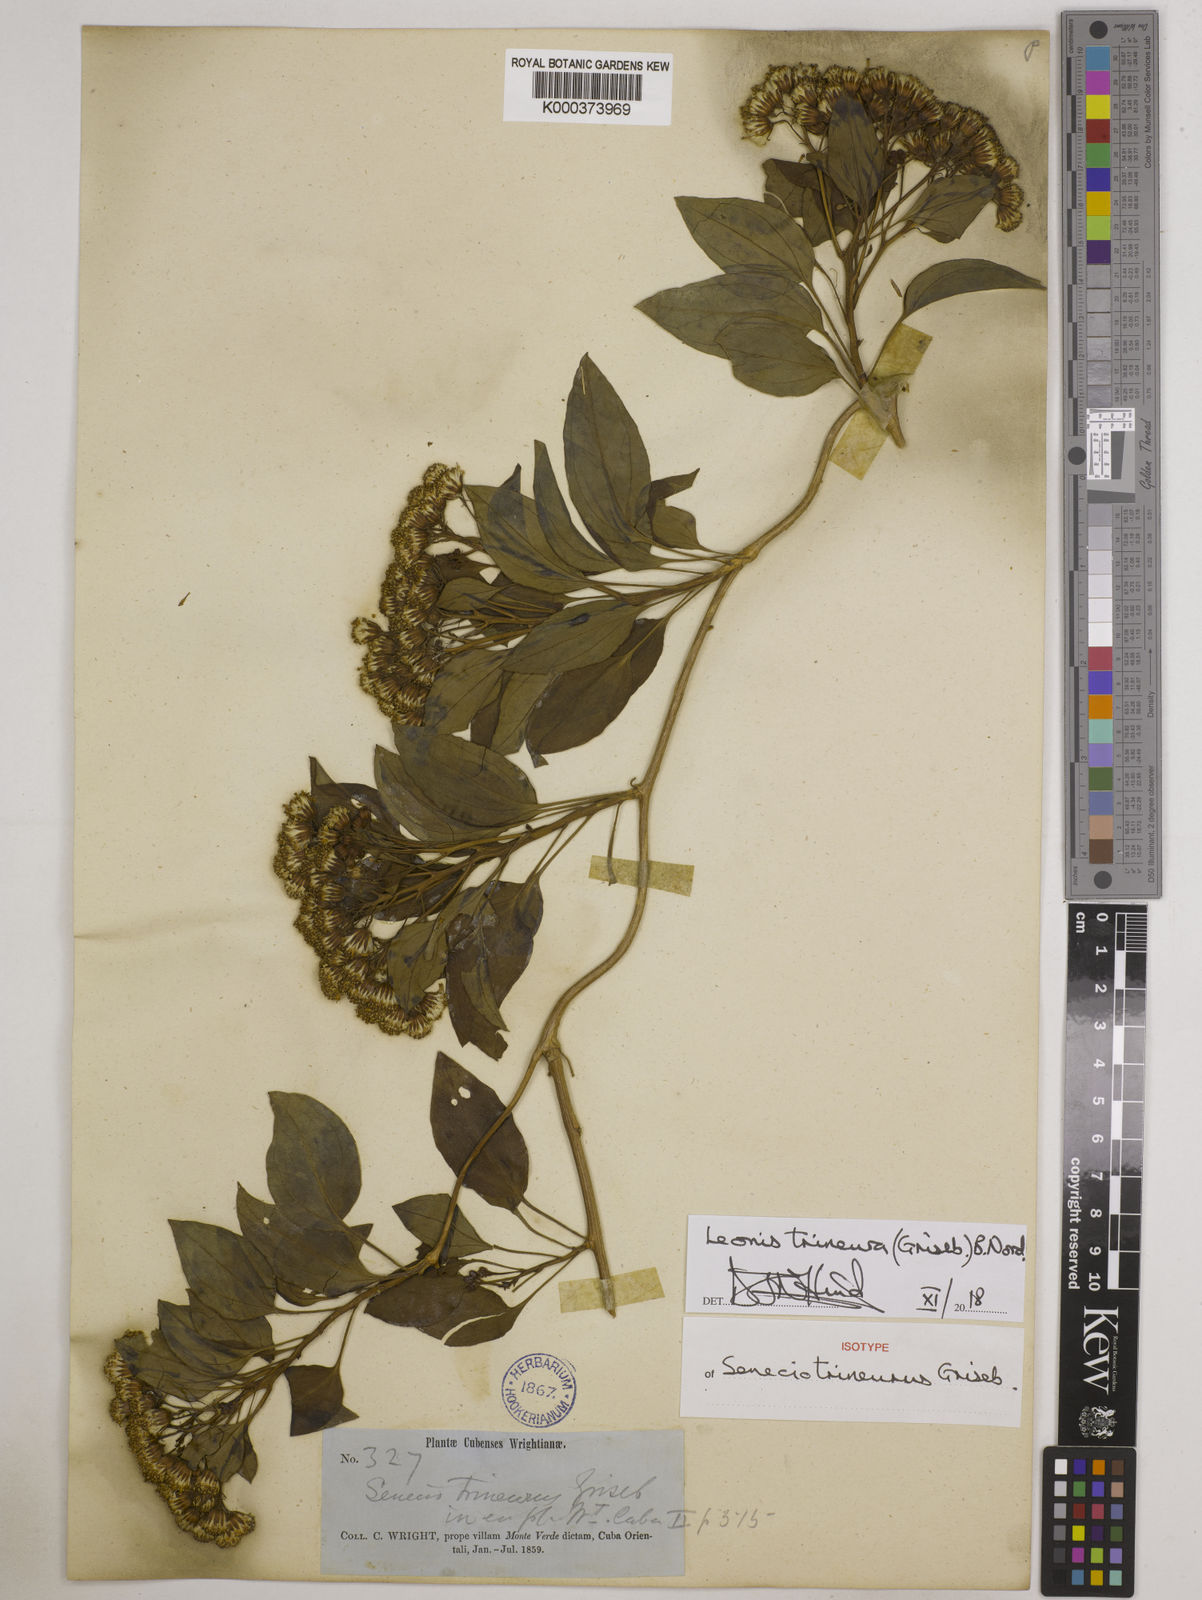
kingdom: Plantae
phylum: Tracheophyta
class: Magnoliopsida
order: Asterales
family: Asteraceae
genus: Leonis
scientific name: Leonis trineura
